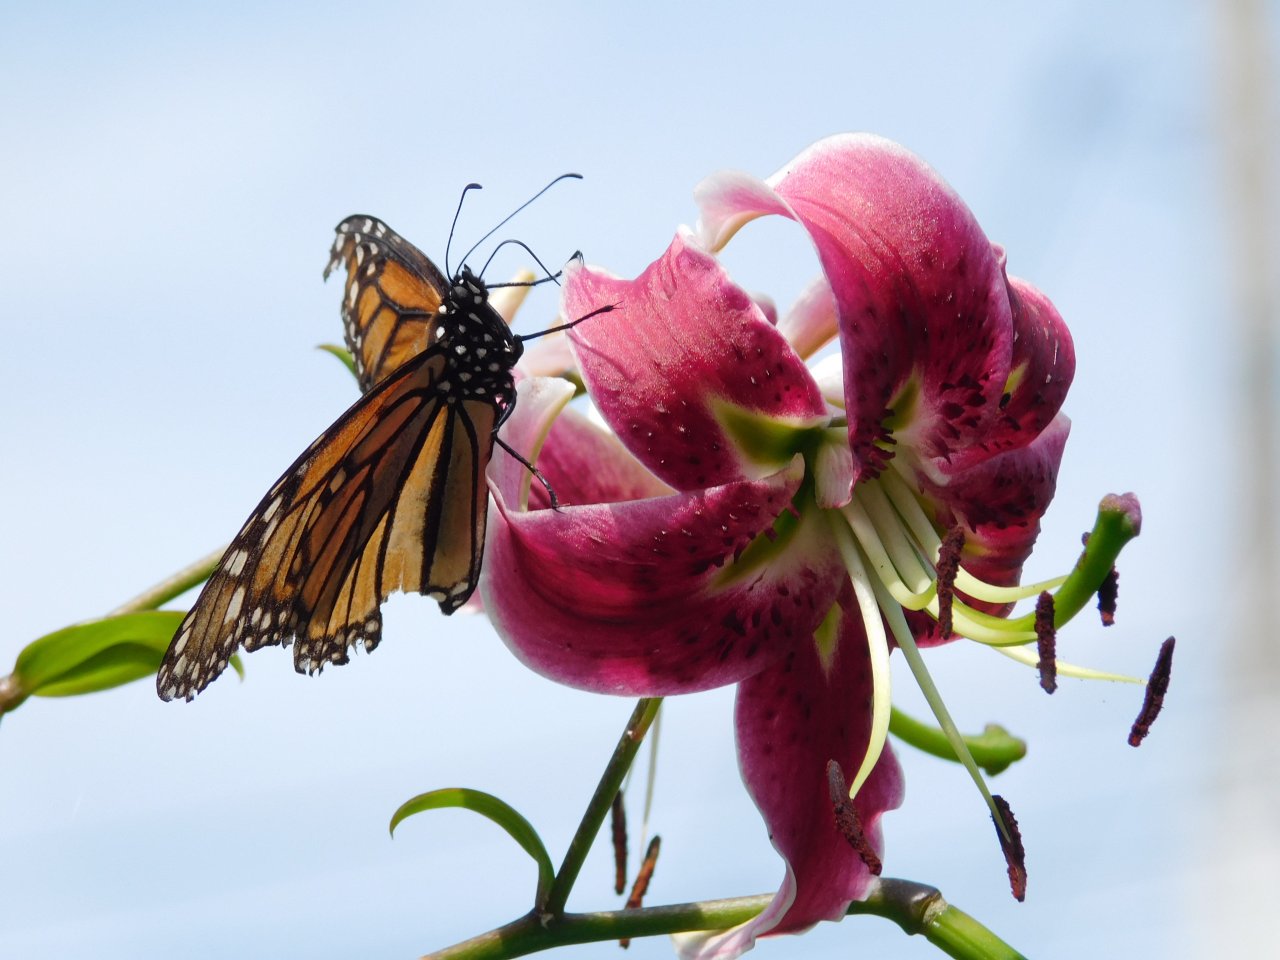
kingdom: Animalia
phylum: Arthropoda
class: Insecta
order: Lepidoptera
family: Nymphalidae
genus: Danaus
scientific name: Danaus plexippus
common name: Monarch
